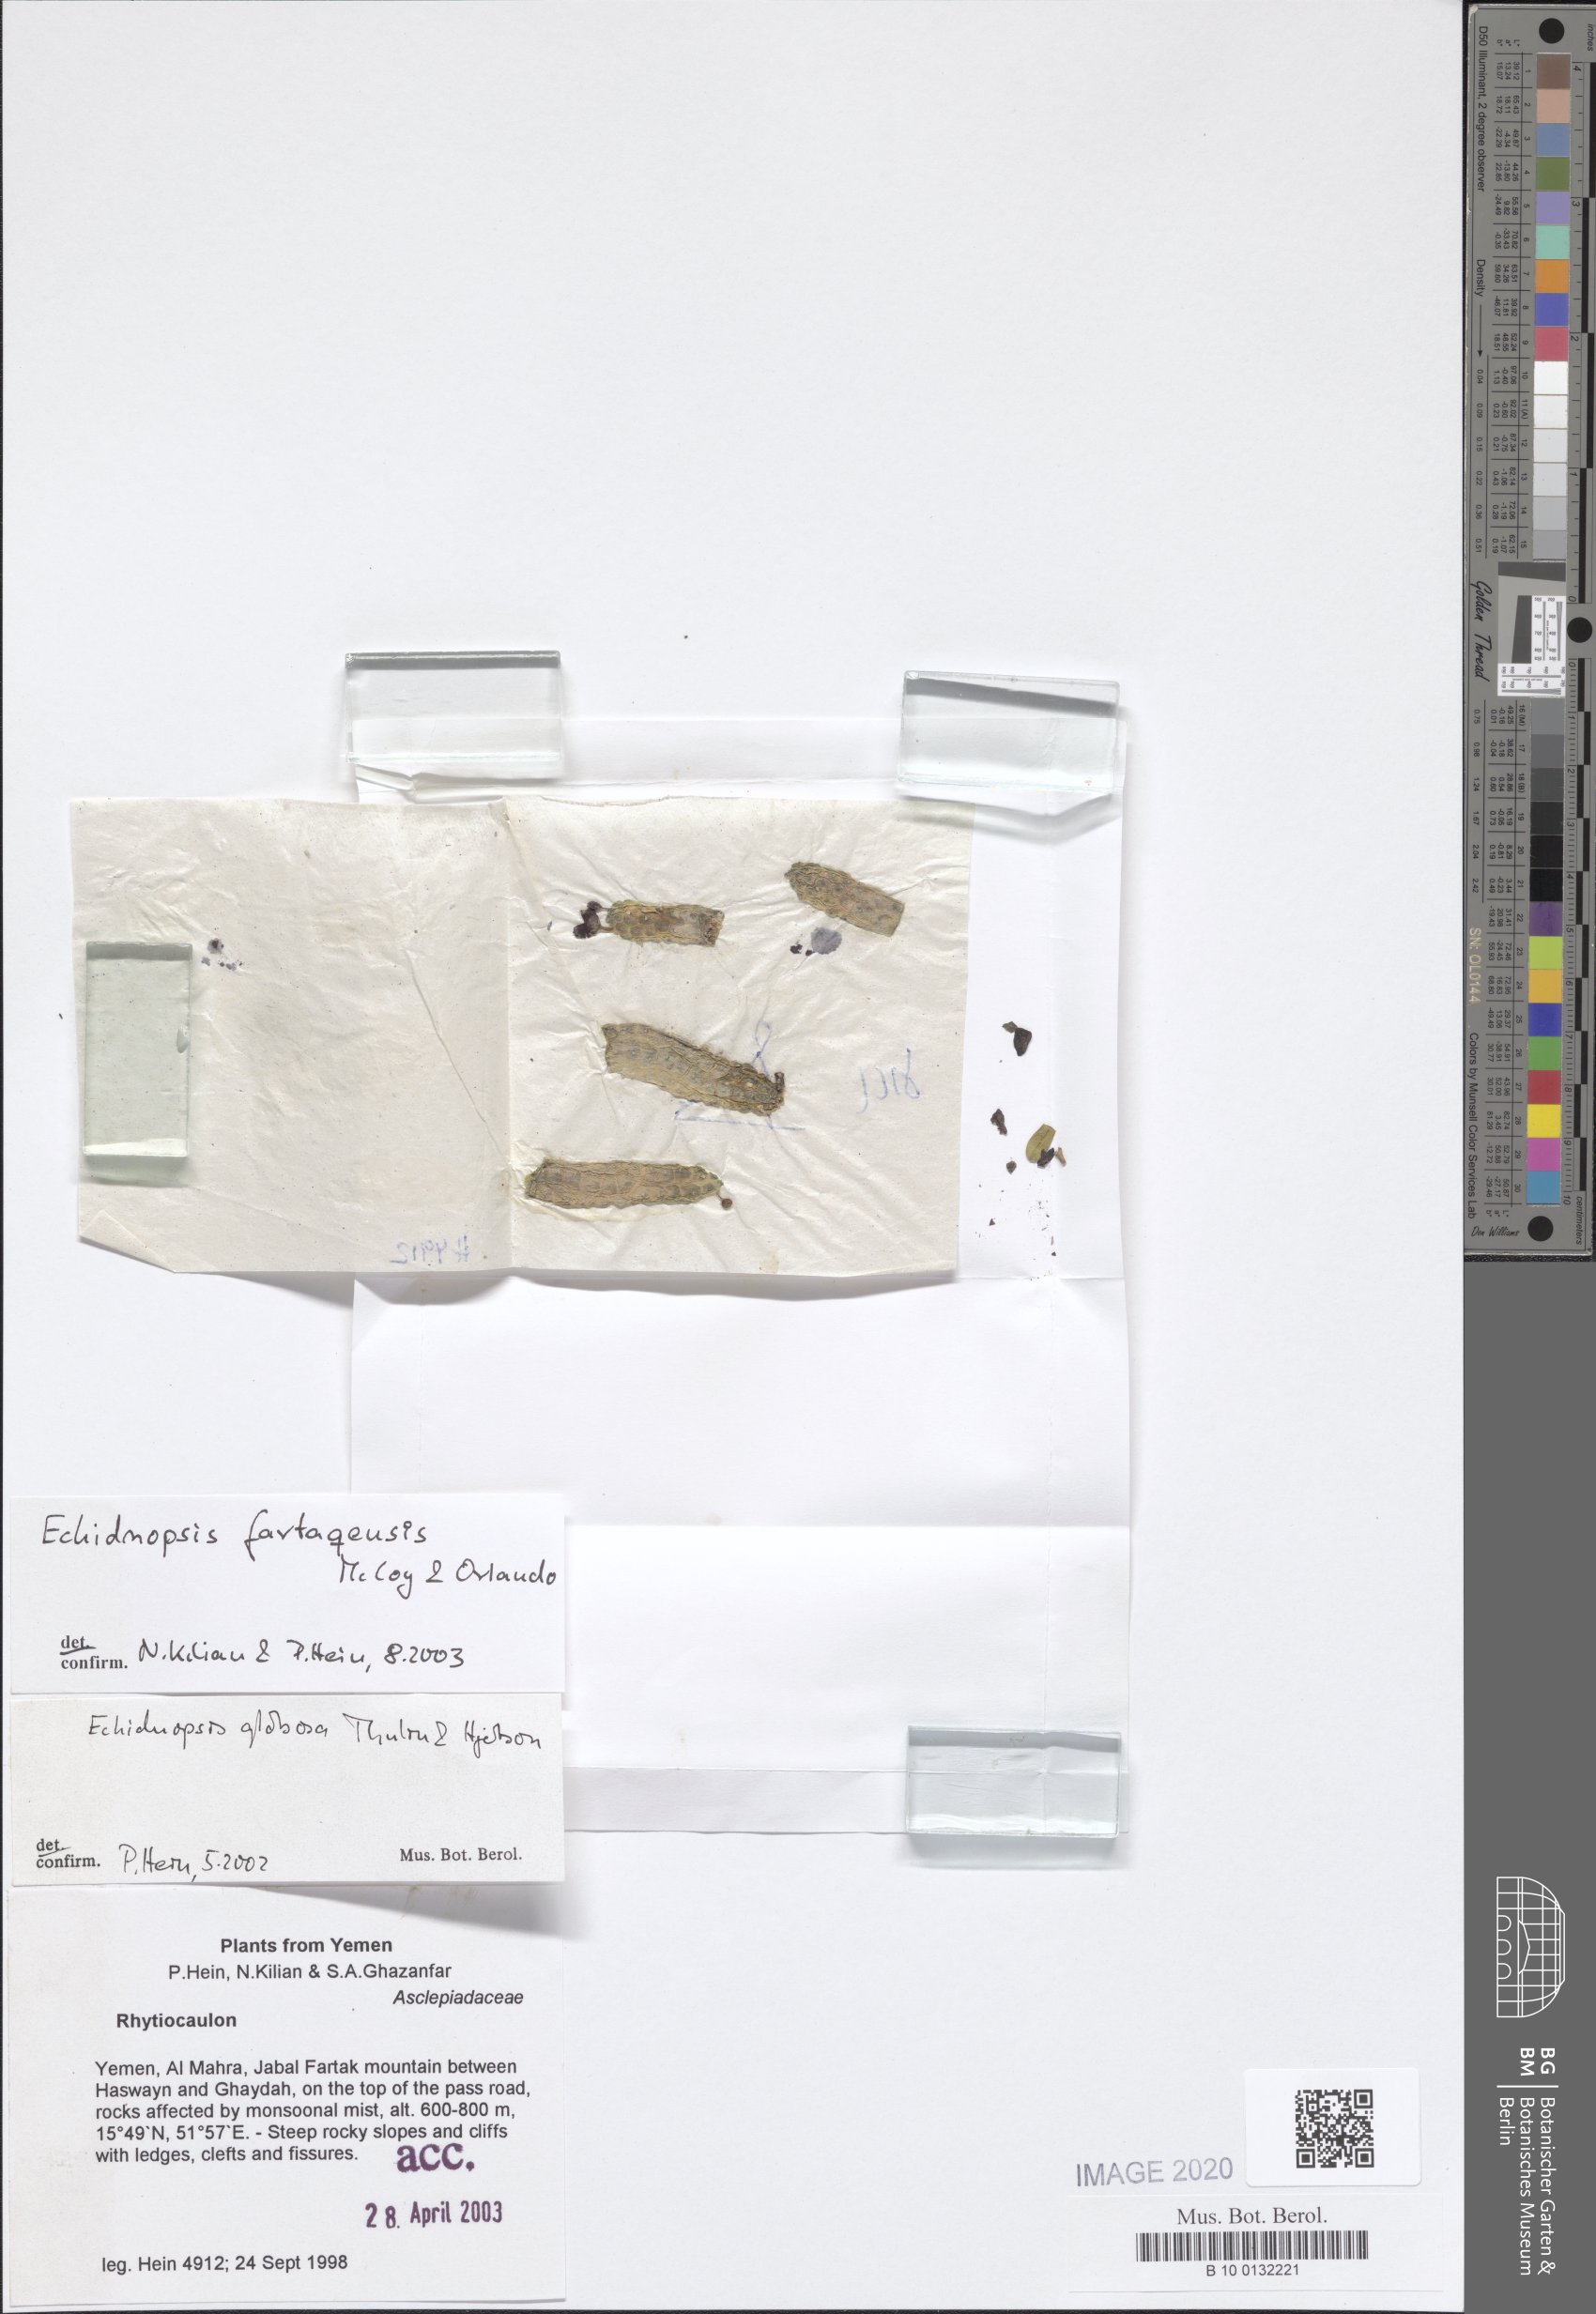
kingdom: Plantae
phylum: Tracheophyta
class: Magnoliopsida
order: Gentianales
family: Apocynaceae
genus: Ceropegia
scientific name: Ceropegia globosa
